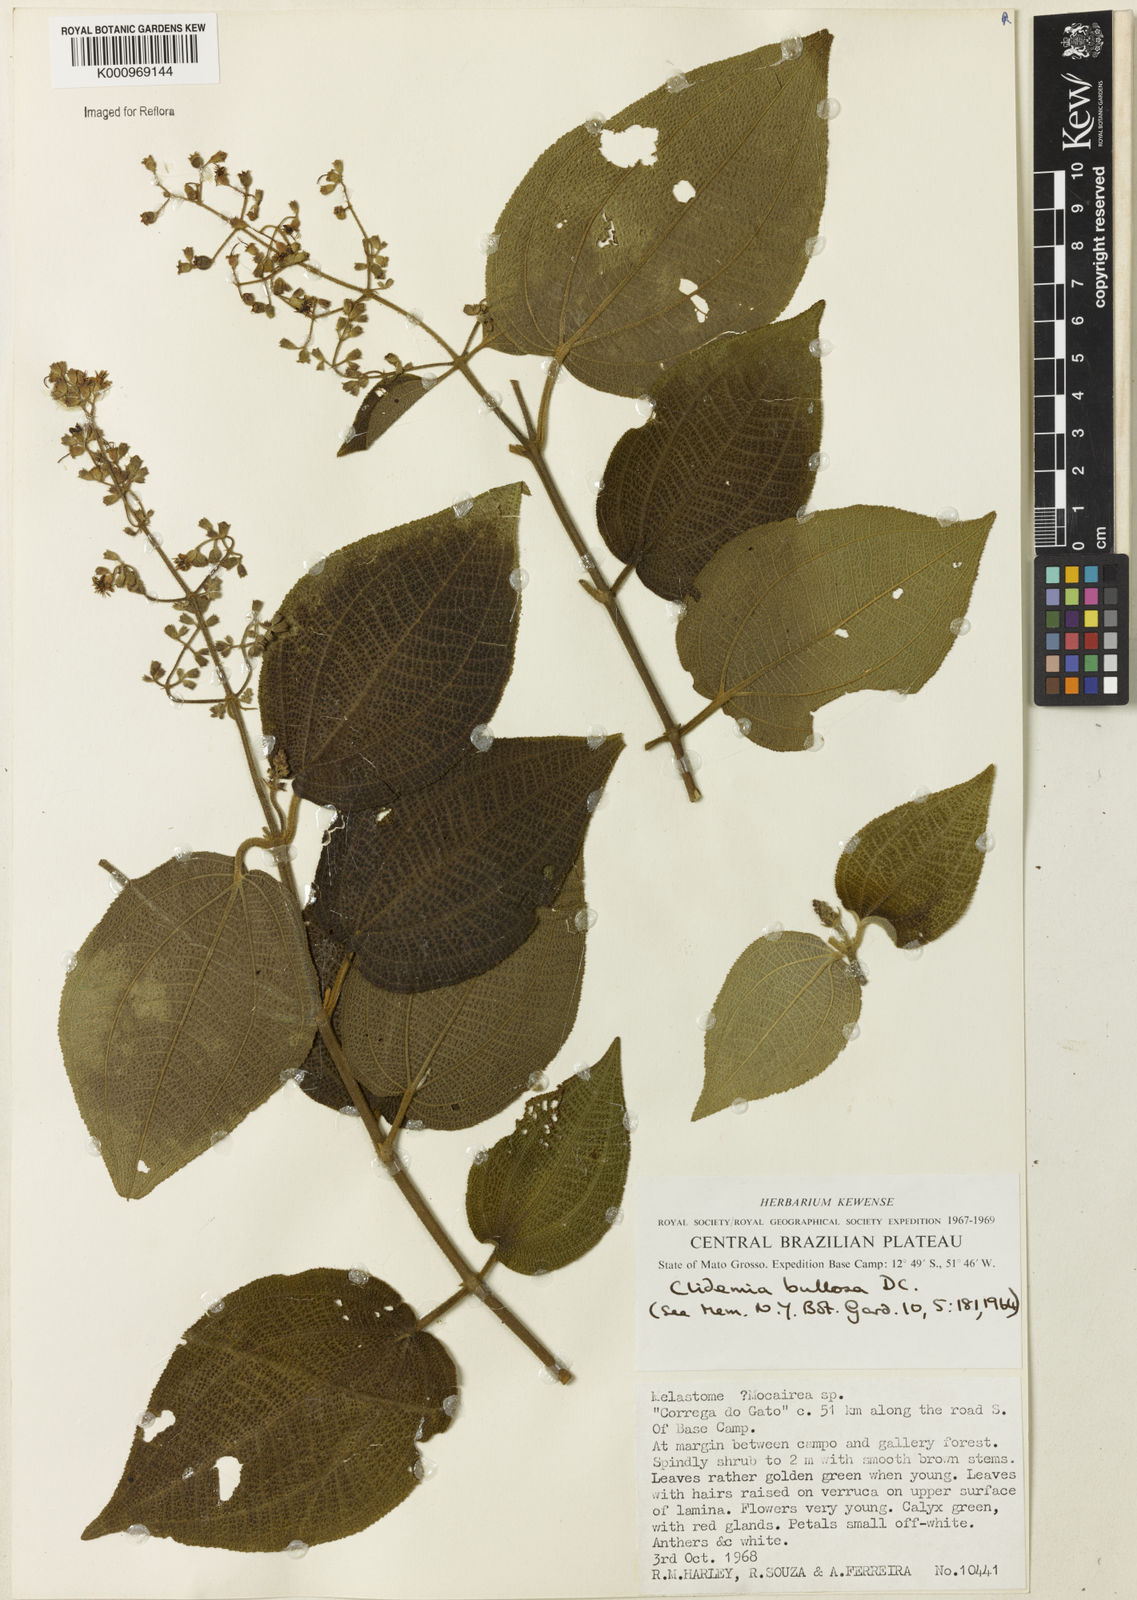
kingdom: Plantae
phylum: Tracheophyta
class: Magnoliopsida
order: Myrtales
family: Melastomataceae
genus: Miconia
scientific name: Miconia biserrata
